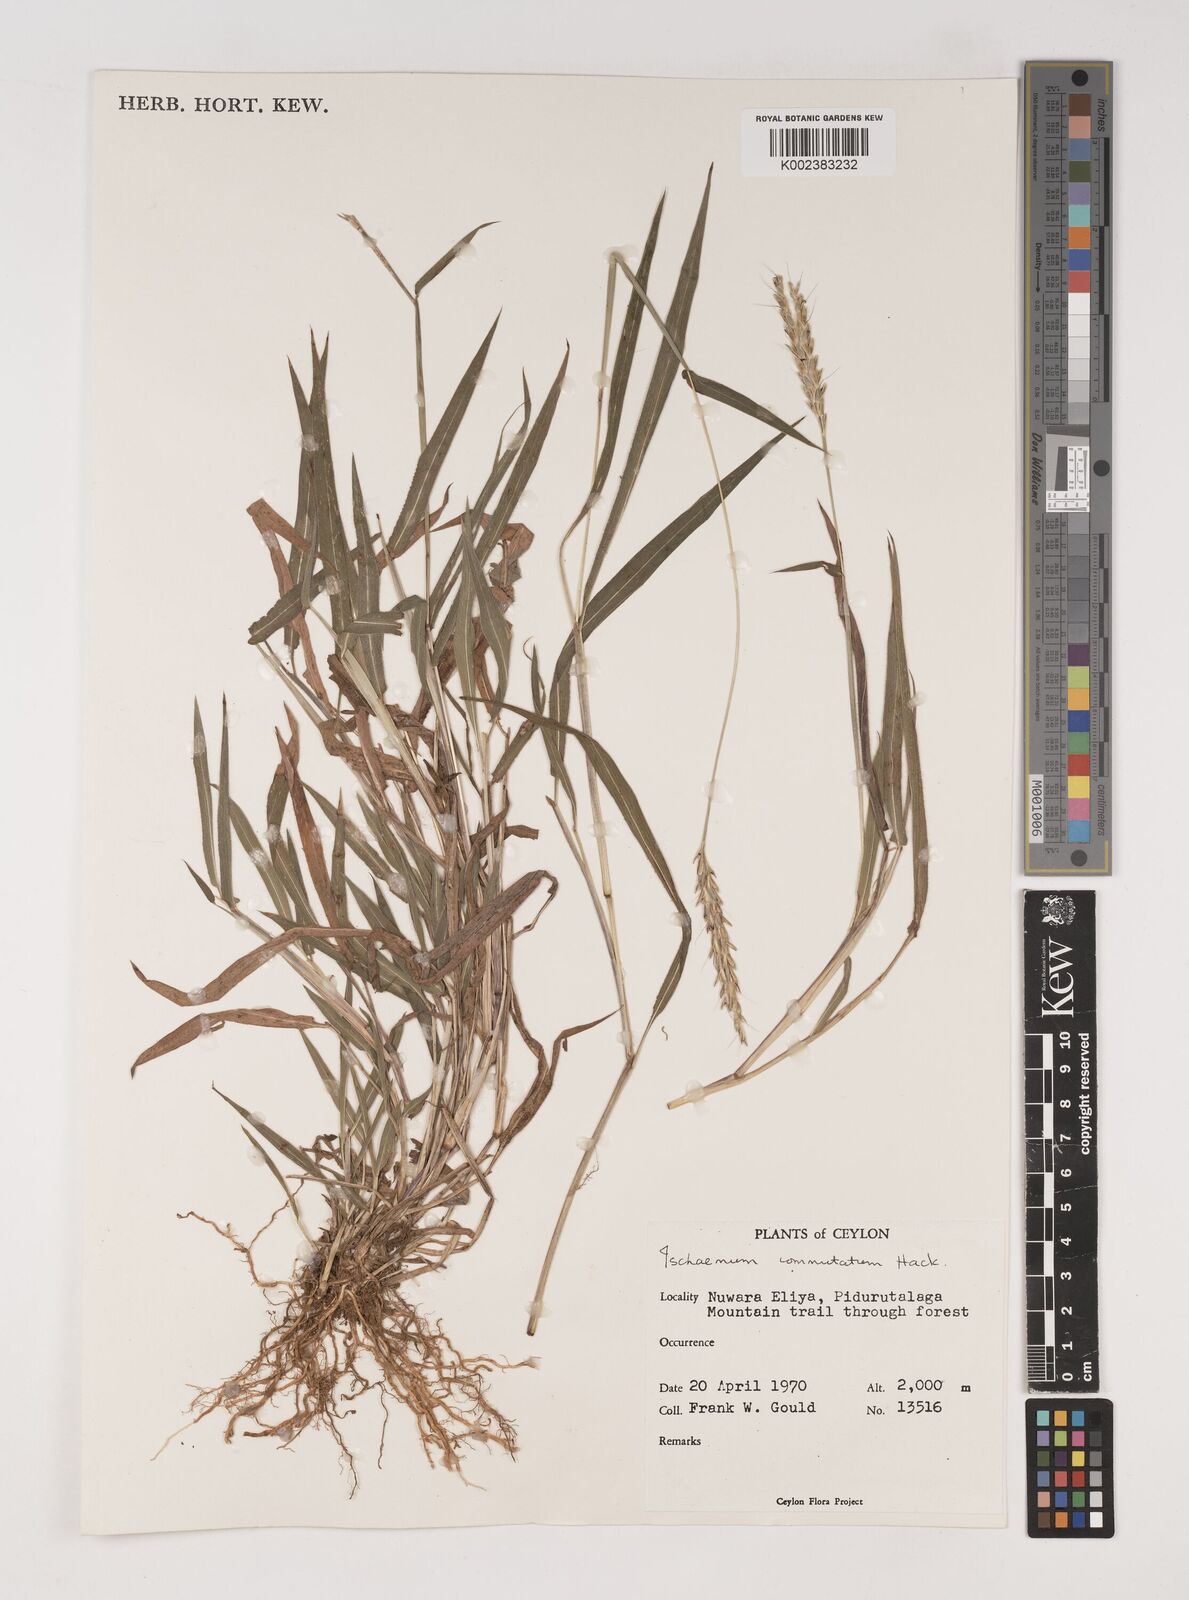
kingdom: Plantae
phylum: Tracheophyta
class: Liliopsida
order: Poales
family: Poaceae
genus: Ischaemum
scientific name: Ischaemum commutatum
